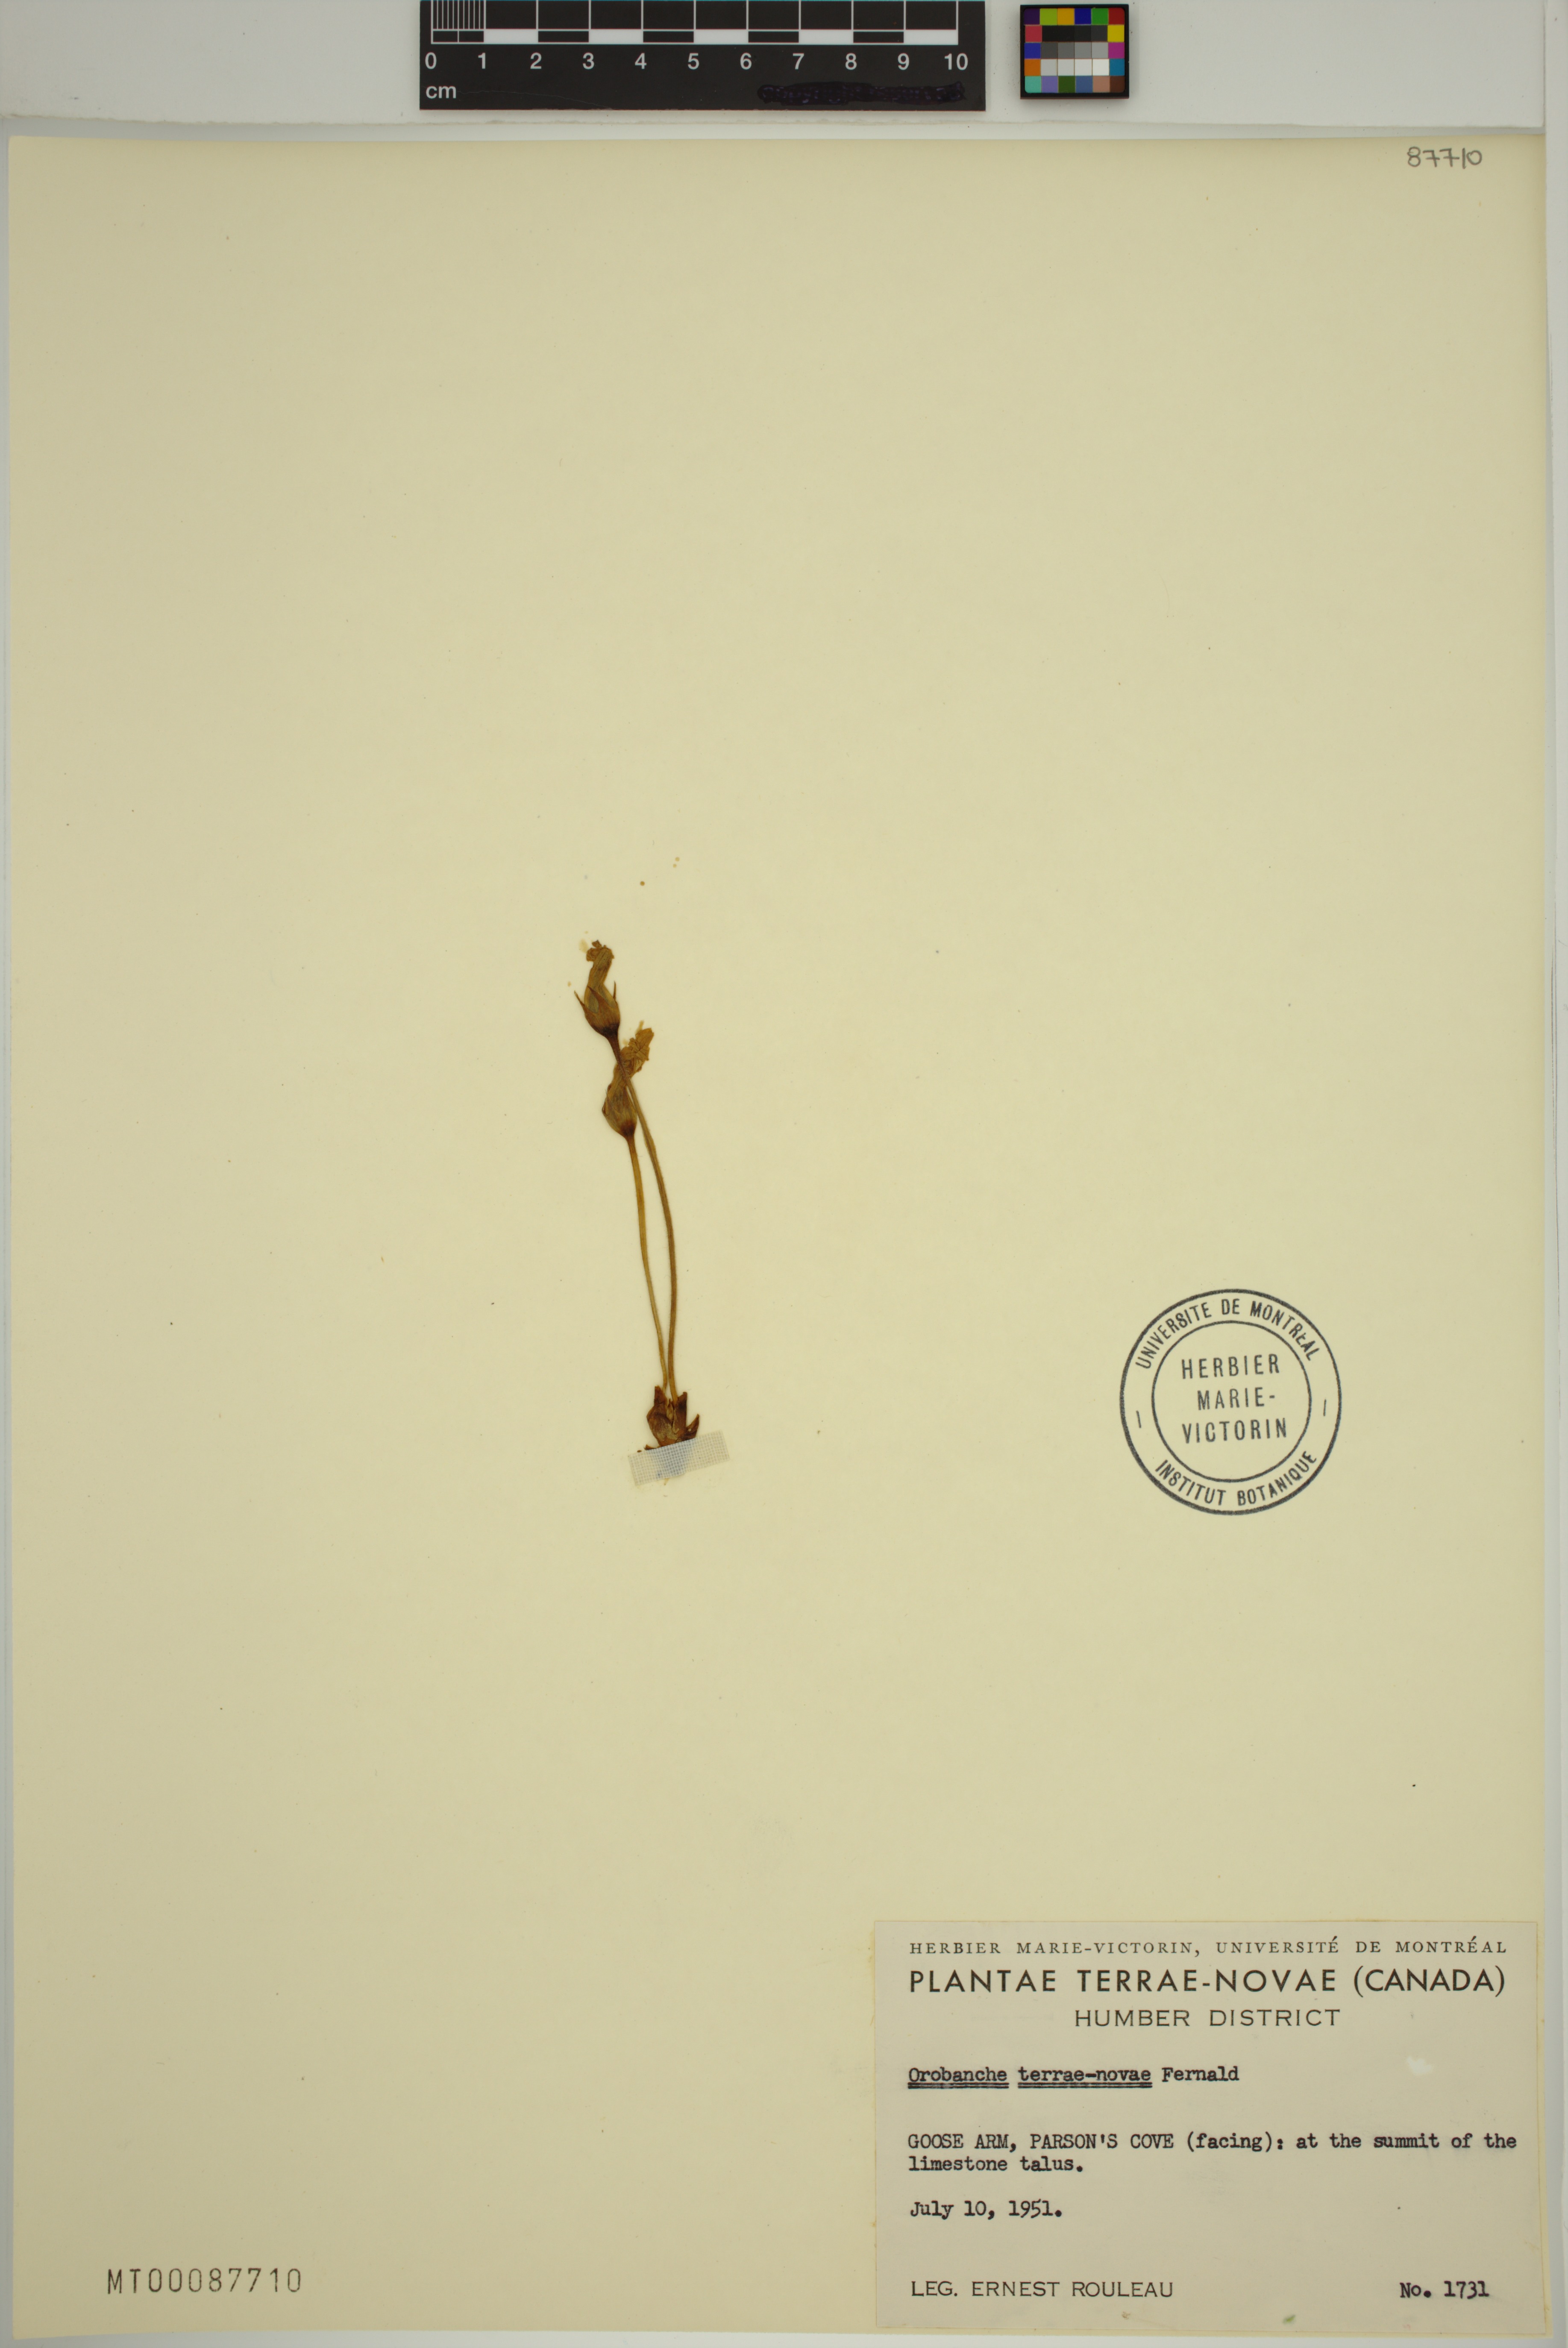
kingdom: Plantae
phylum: Tracheophyta
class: Magnoliopsida
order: Lamiales
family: Orobanchaceae
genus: Aphyllon
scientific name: Aphyllon uniflorum
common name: One-flowered broomrape
